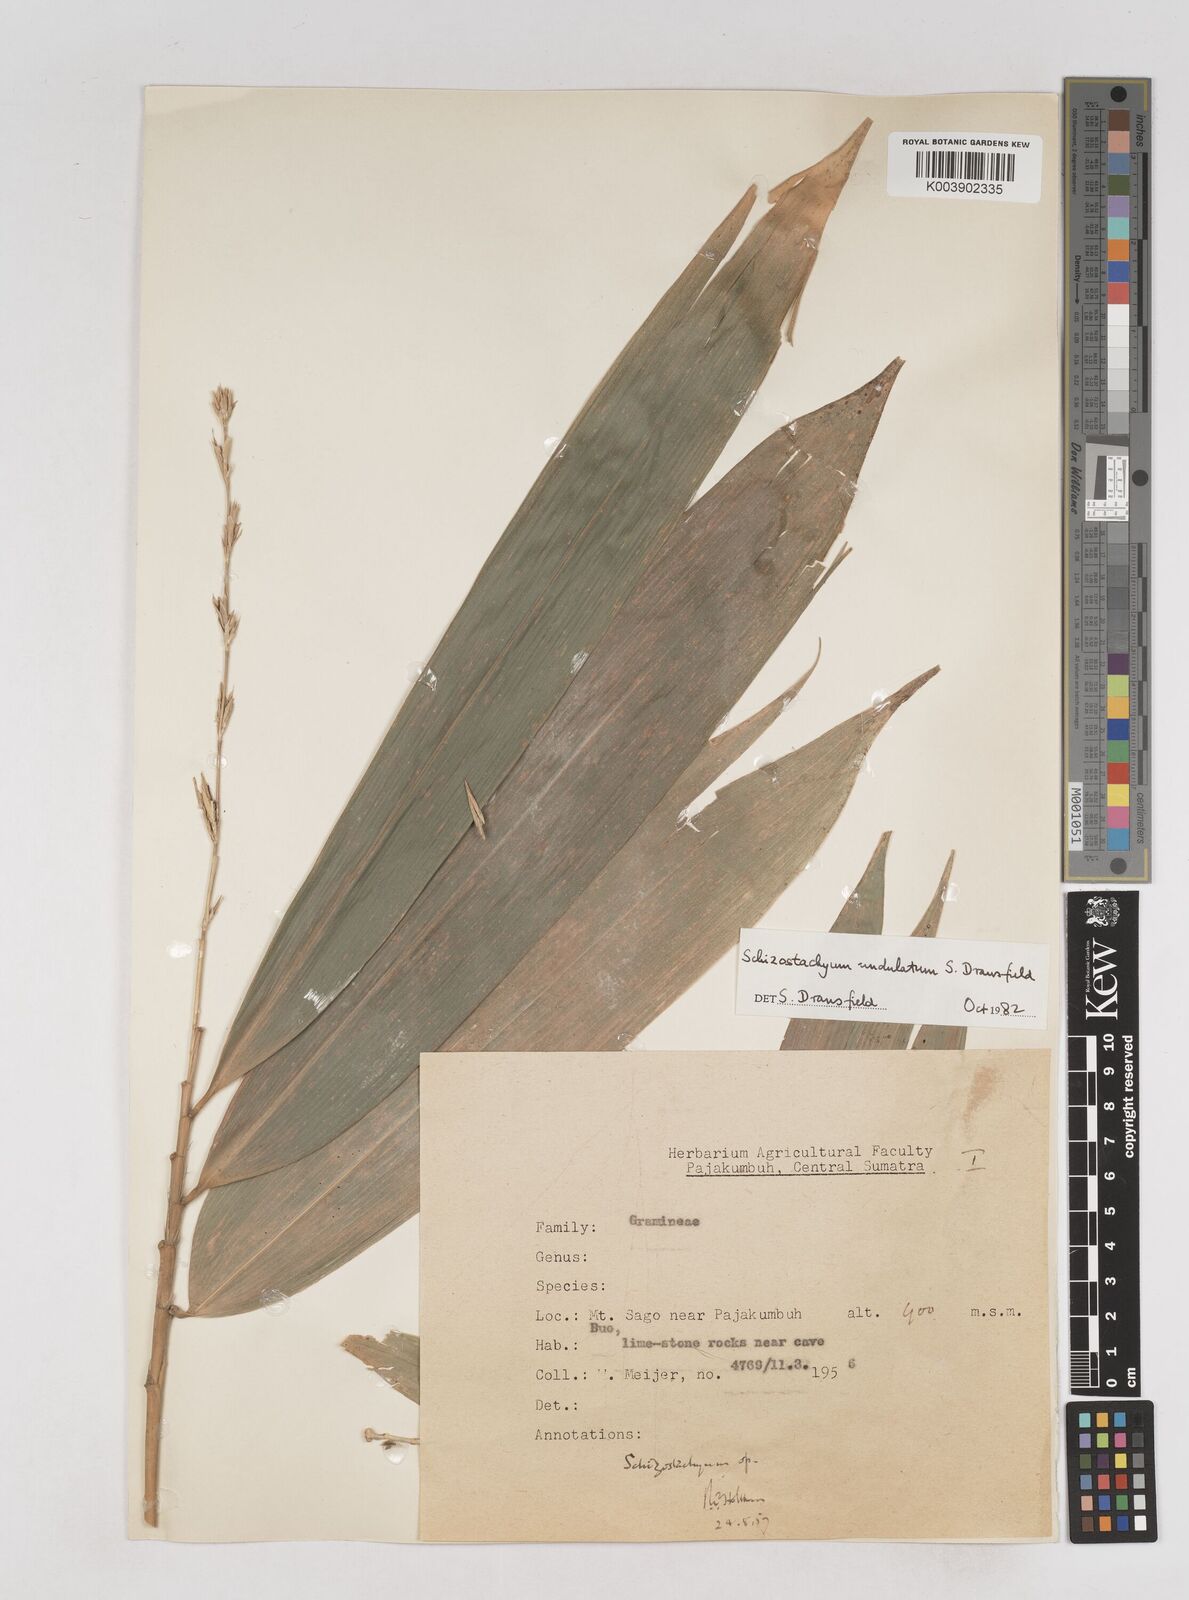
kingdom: Plantae
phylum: Tracheophyta
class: Liliopsida
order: Poales
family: Poaceae
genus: Schizostachyum
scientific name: Schizostachyum
